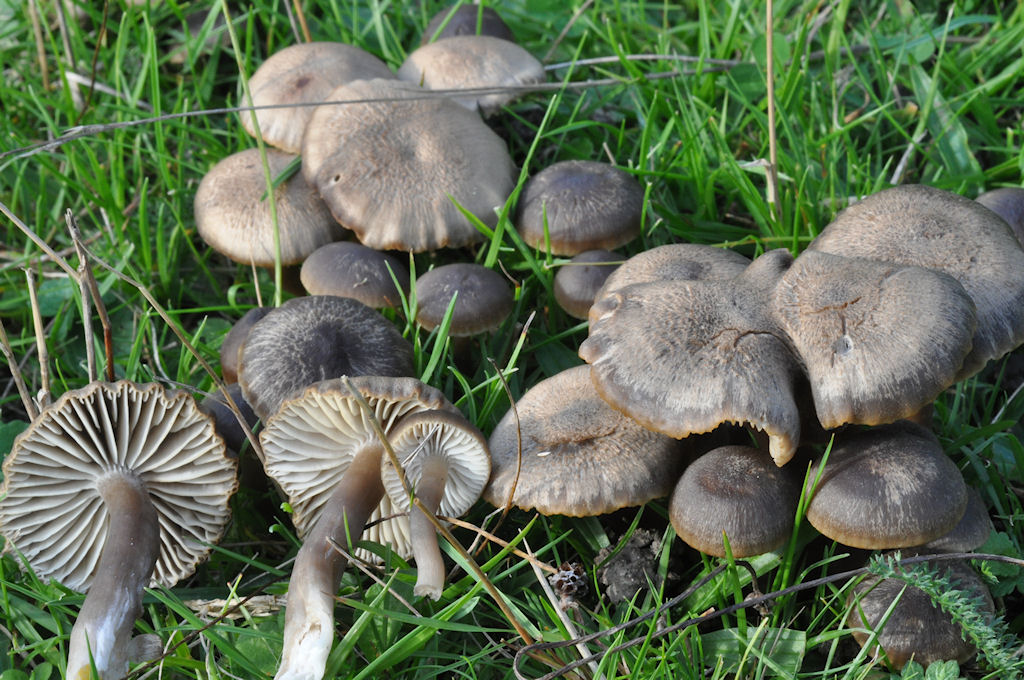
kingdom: Fungi
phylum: Basidiomycota
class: Agaricomycetes
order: Agaricales
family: Hygrophoraceae
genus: Neohygrocybe
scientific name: Neohygrocybe nitrata
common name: stinkende vokshat
